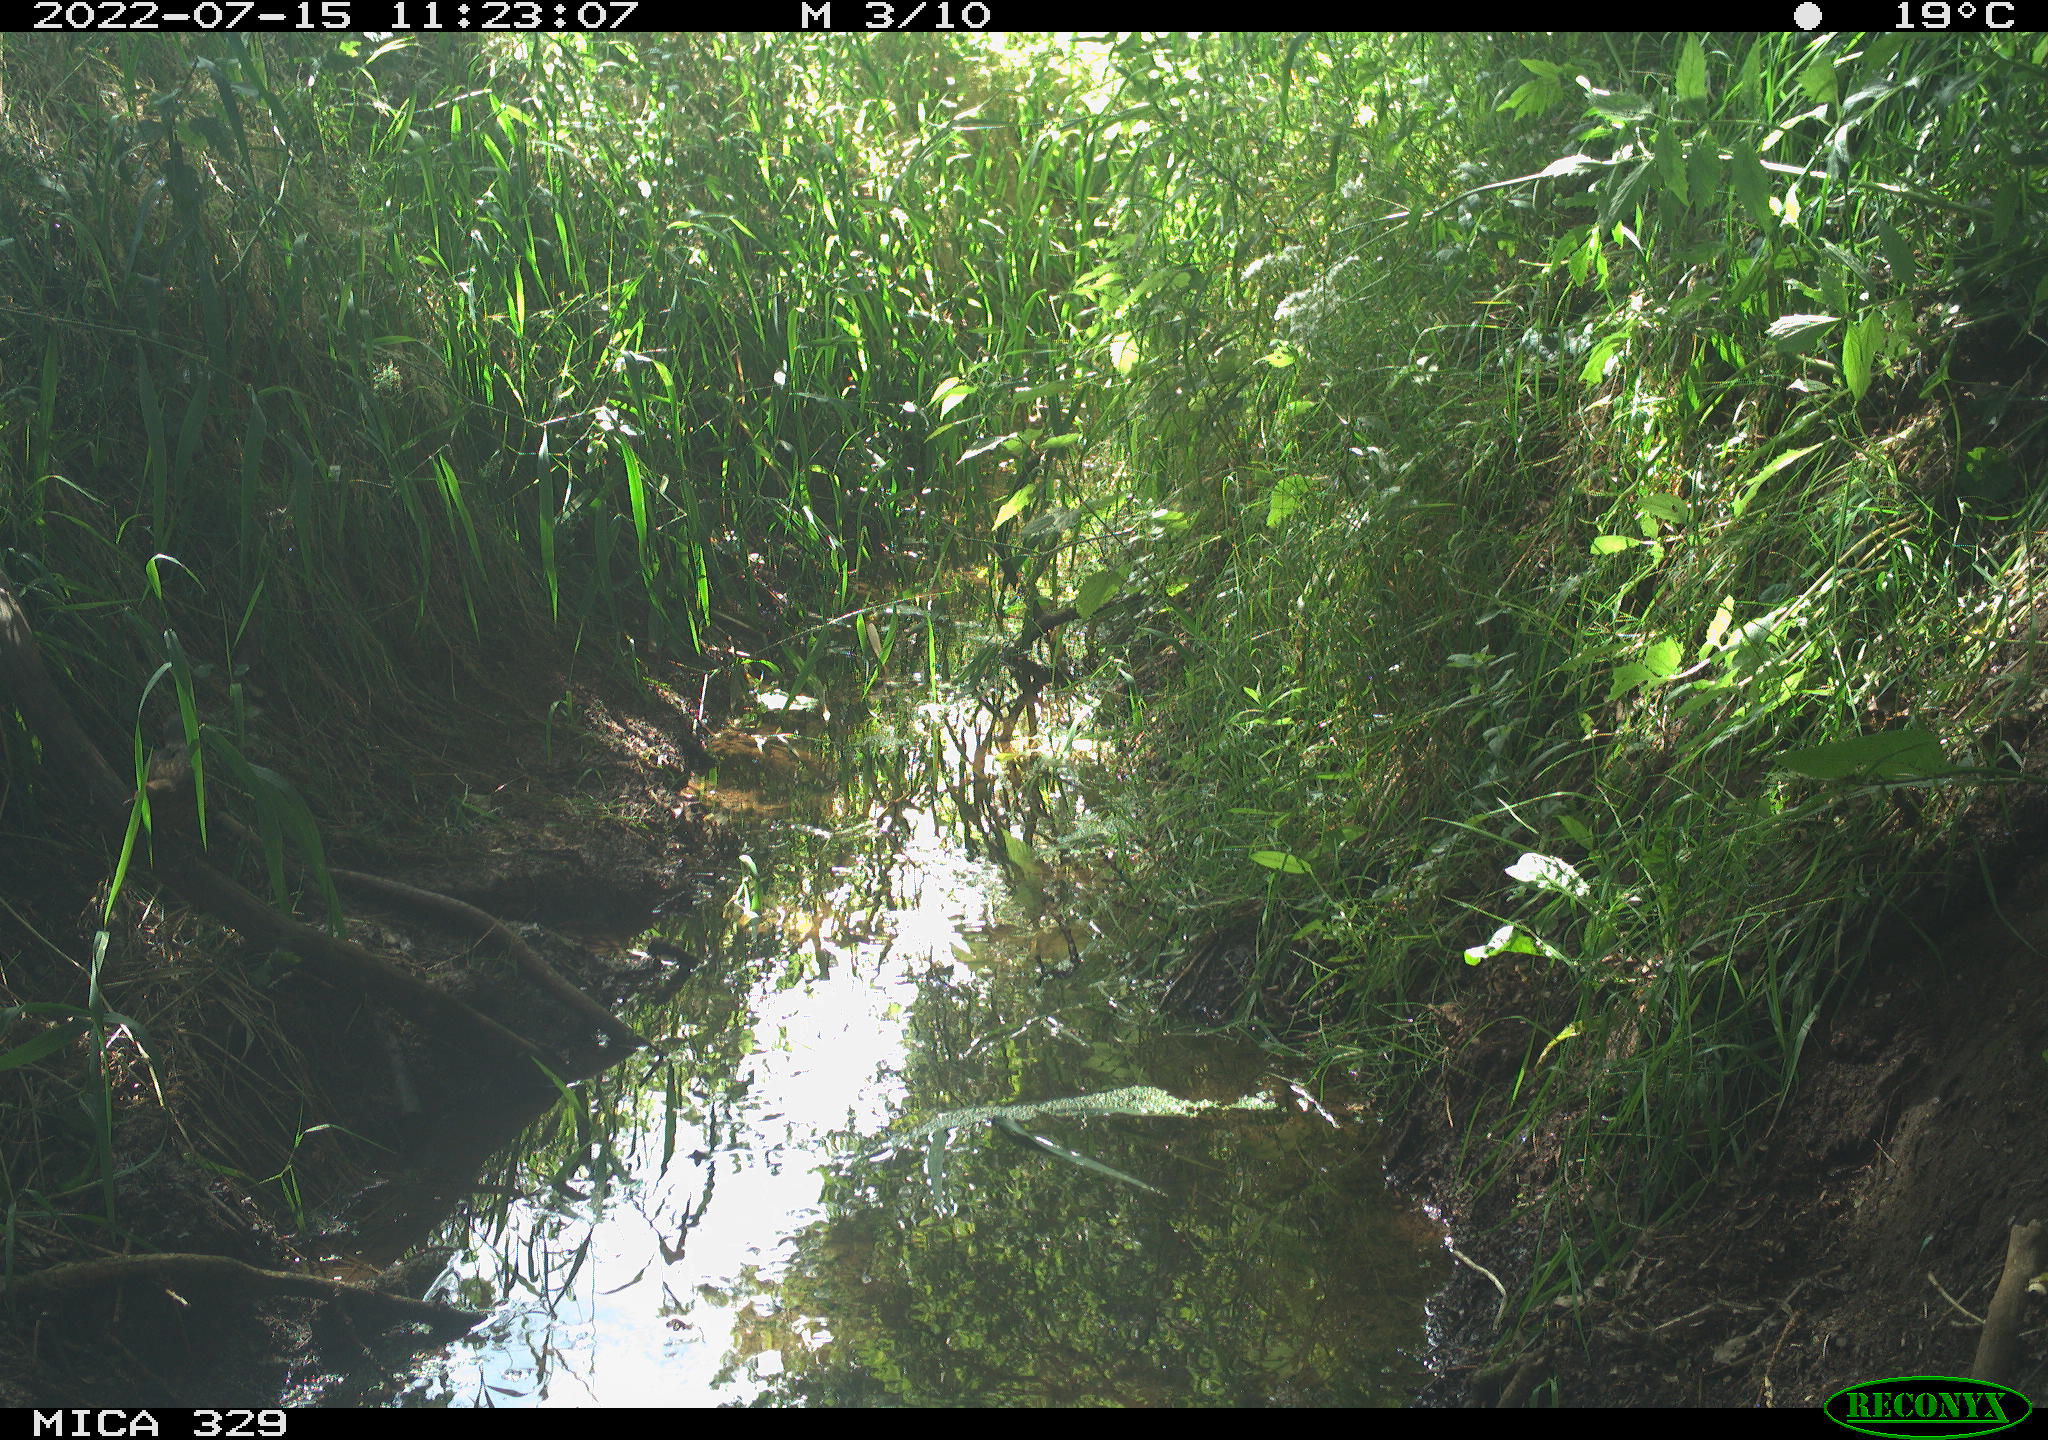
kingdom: Animalia
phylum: Chordata
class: Aves
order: Passeriformes
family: Turdidae
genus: Turdus
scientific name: Turdus merula
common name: Common blackbird
